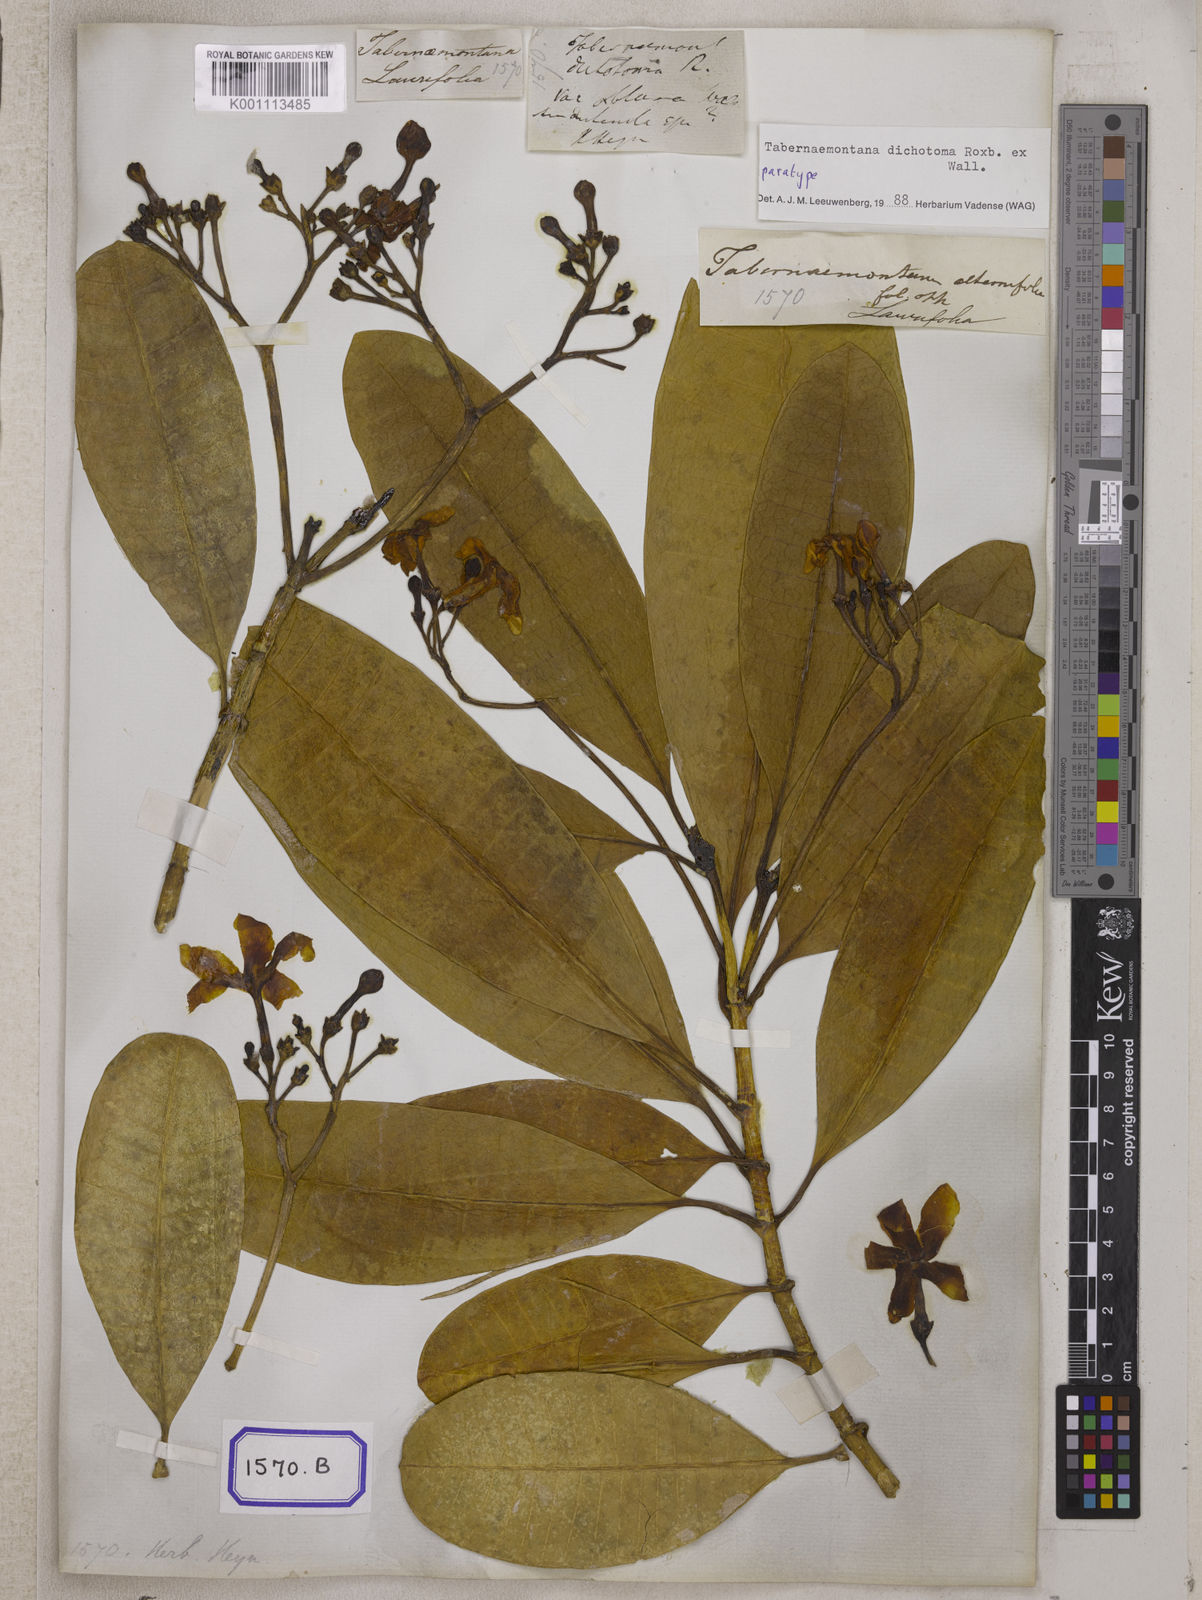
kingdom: Plantae
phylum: Tracheophyta
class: Magnoliopsida
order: Gentianales
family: Apocynaceae
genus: Tabernaemontana
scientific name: Tabernaemontana
